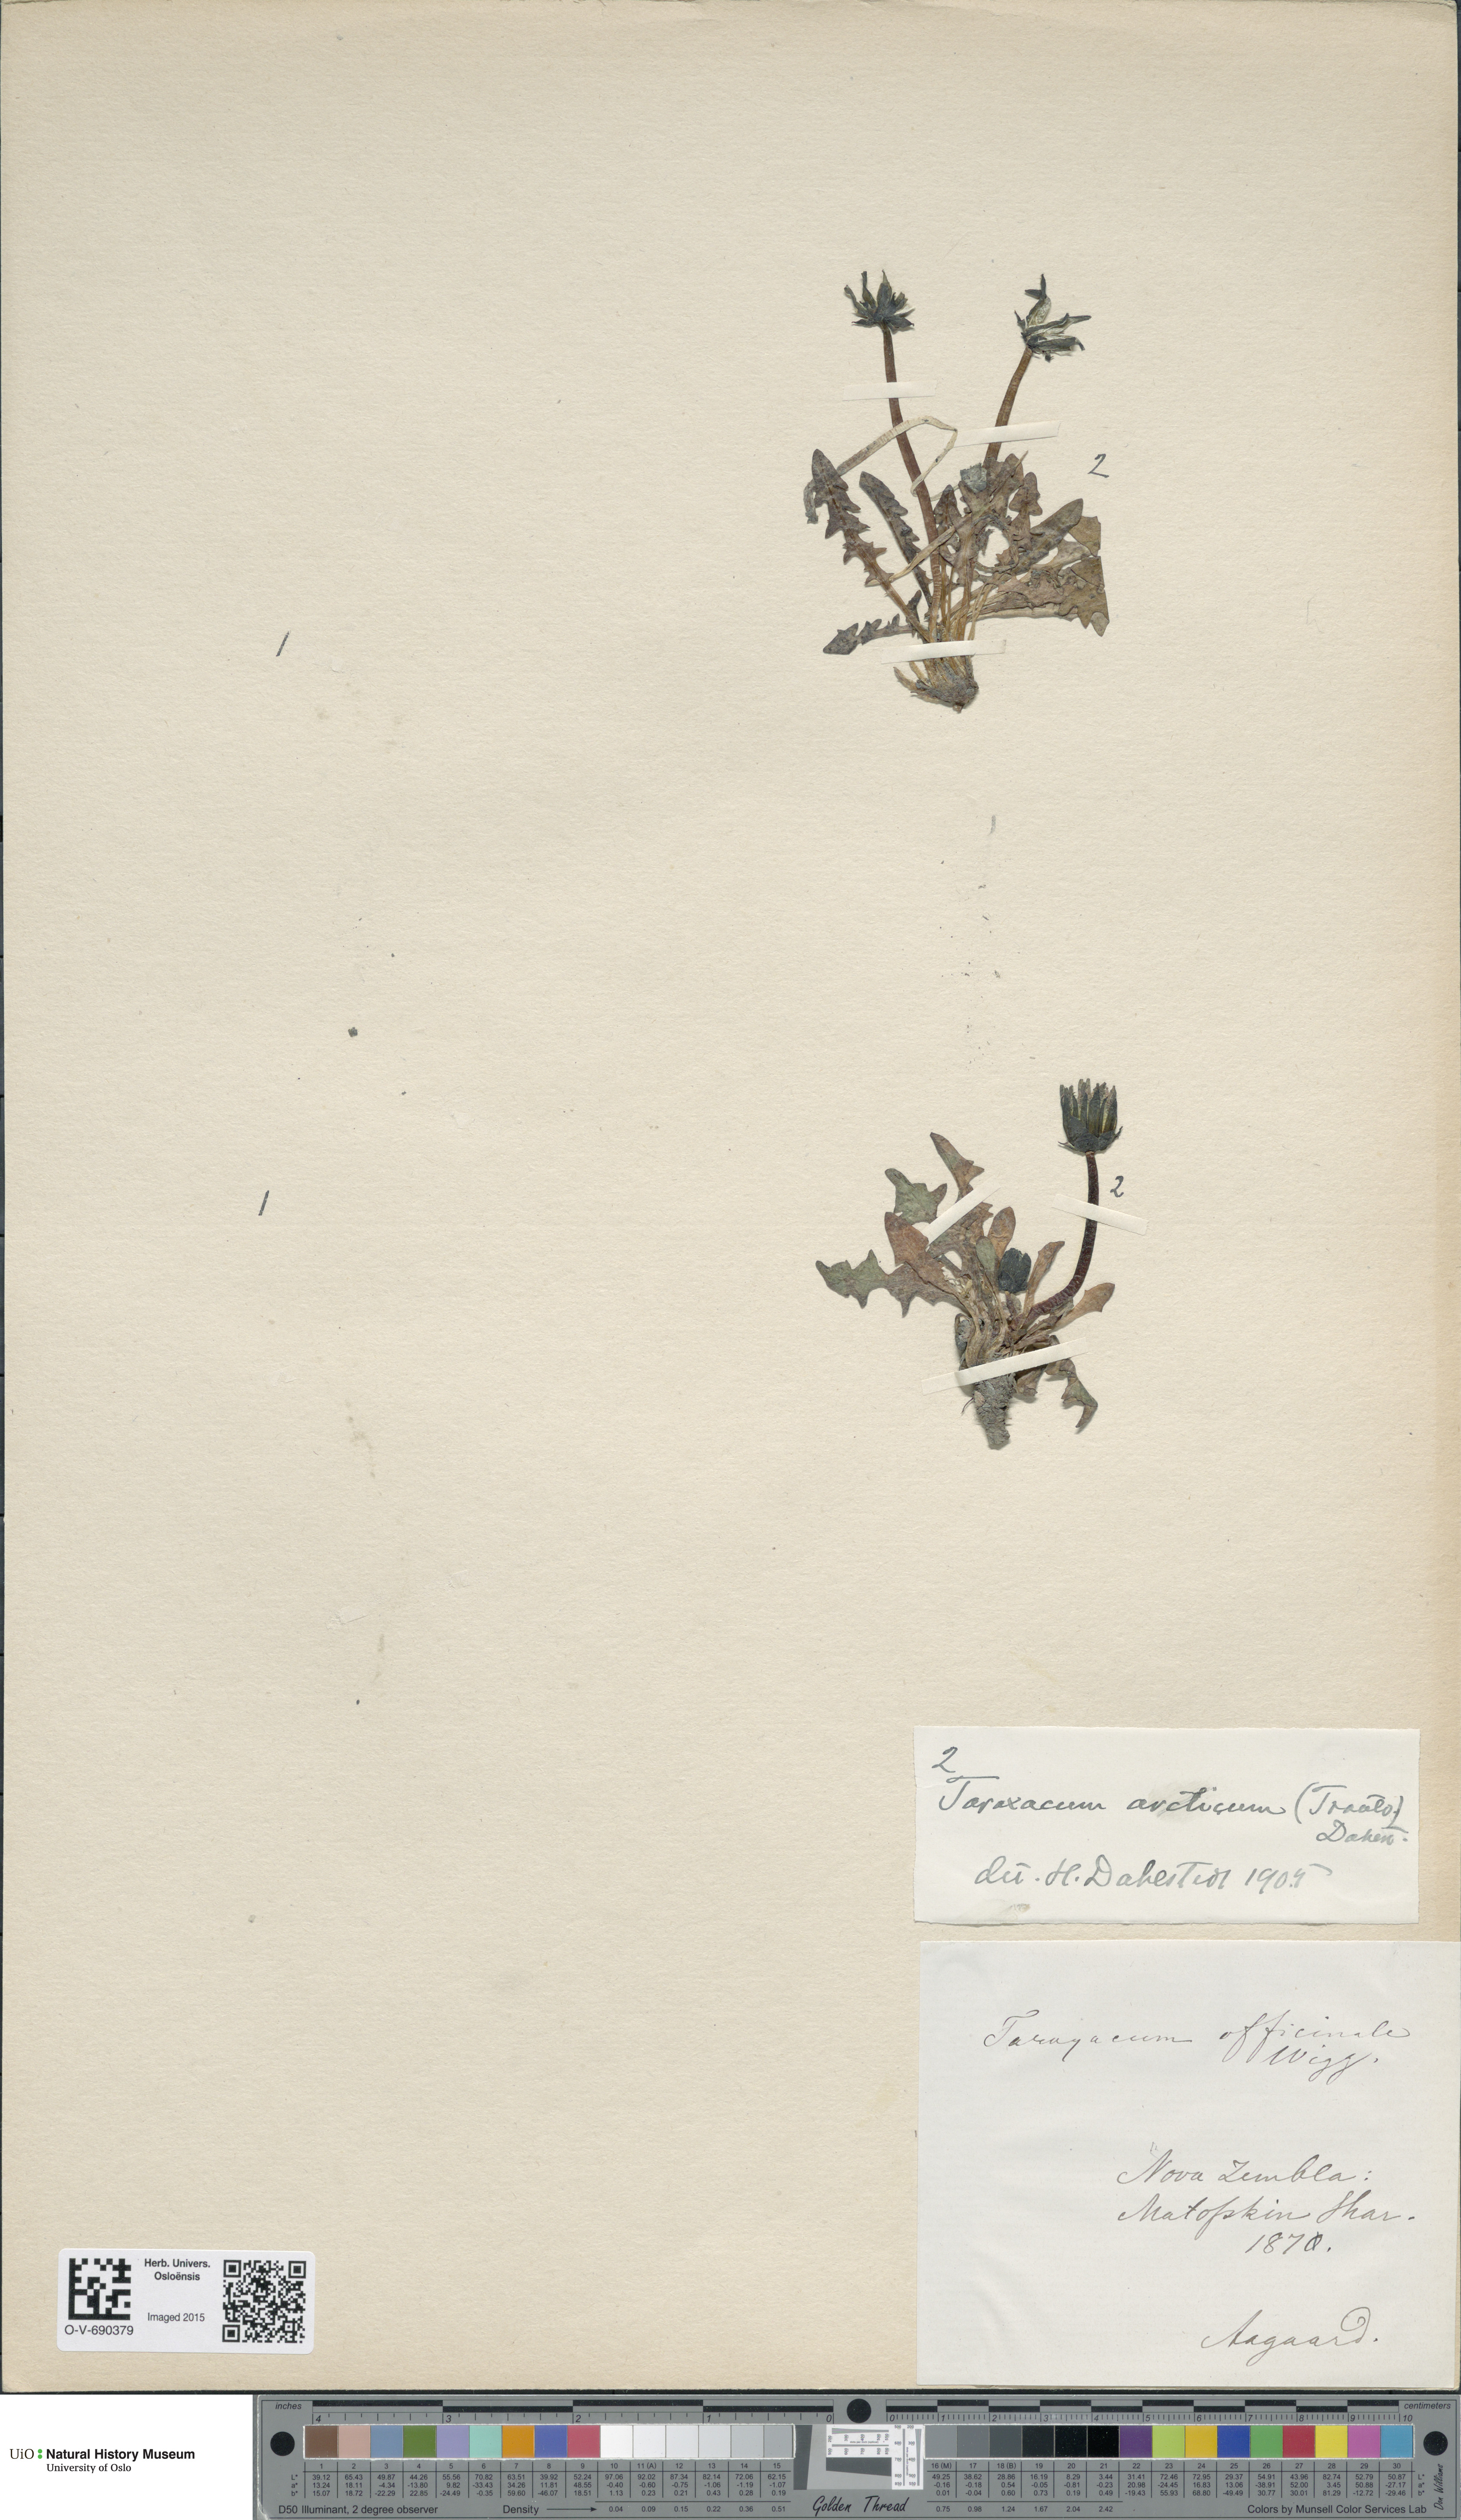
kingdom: Plantae
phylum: Tracheophyta
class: Magnoliopsida
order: Asterales
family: Asteraceae
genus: Taraxacum
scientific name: Taraxacum arcticum
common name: Arctic dandelion
